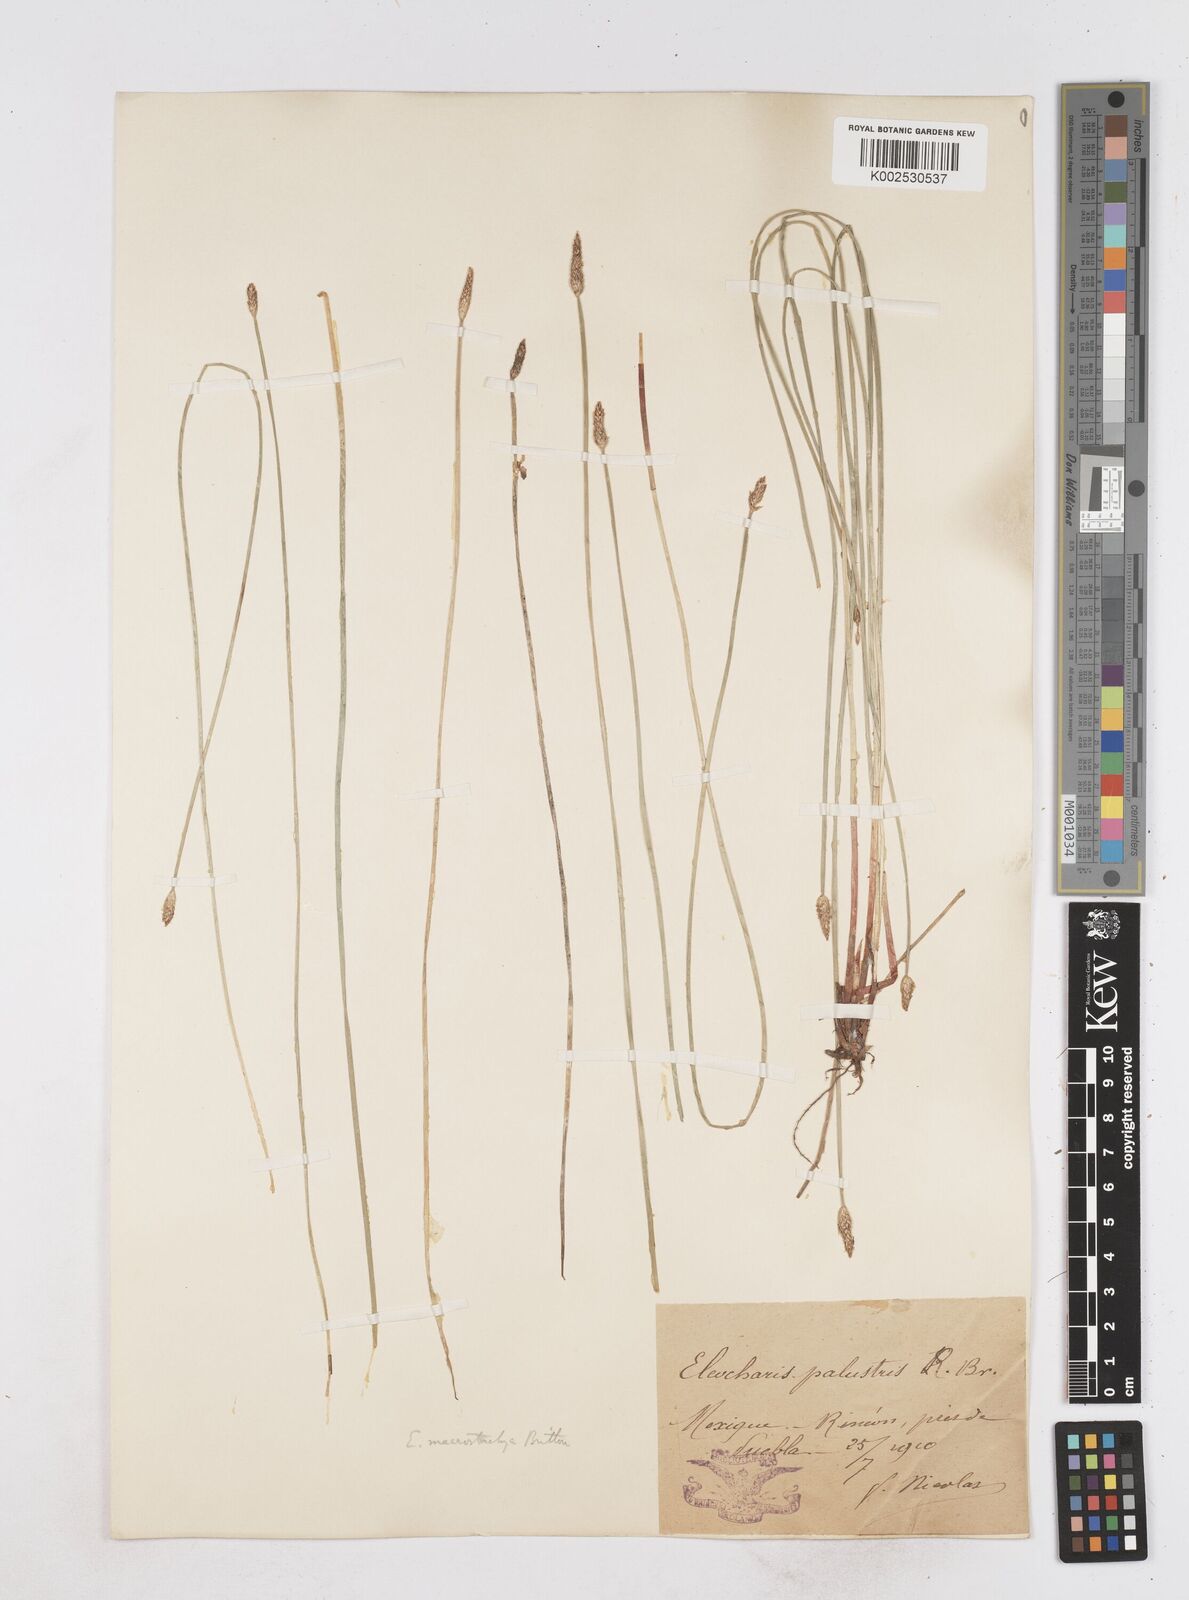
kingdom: Plantae
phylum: Tracheophyta
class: Liliopsida
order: Poales
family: Cyperaceae
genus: Eleocharis
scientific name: Eleocharis macrostachya
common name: Pale spikerush
